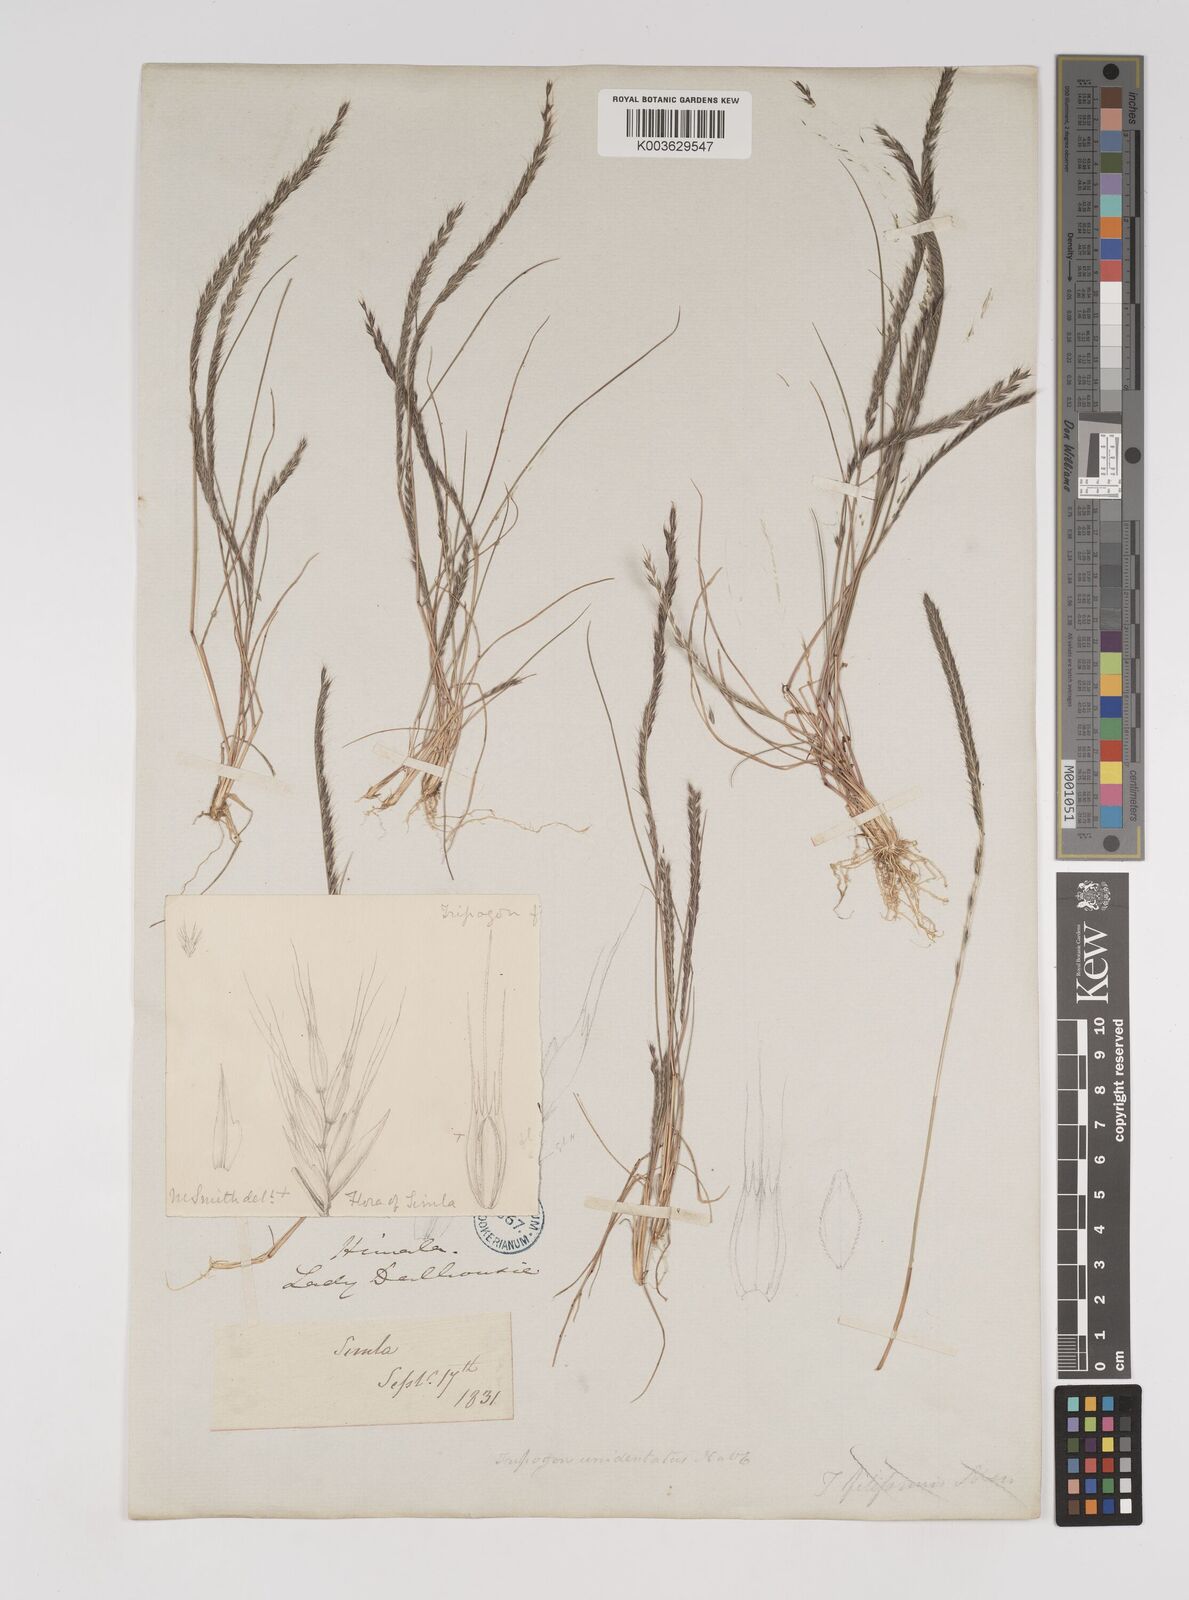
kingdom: Plantae
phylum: Tracheophyta
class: Liliopsida
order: Poales
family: Poaceae
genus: Tripogon
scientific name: Tripogon filiformis
